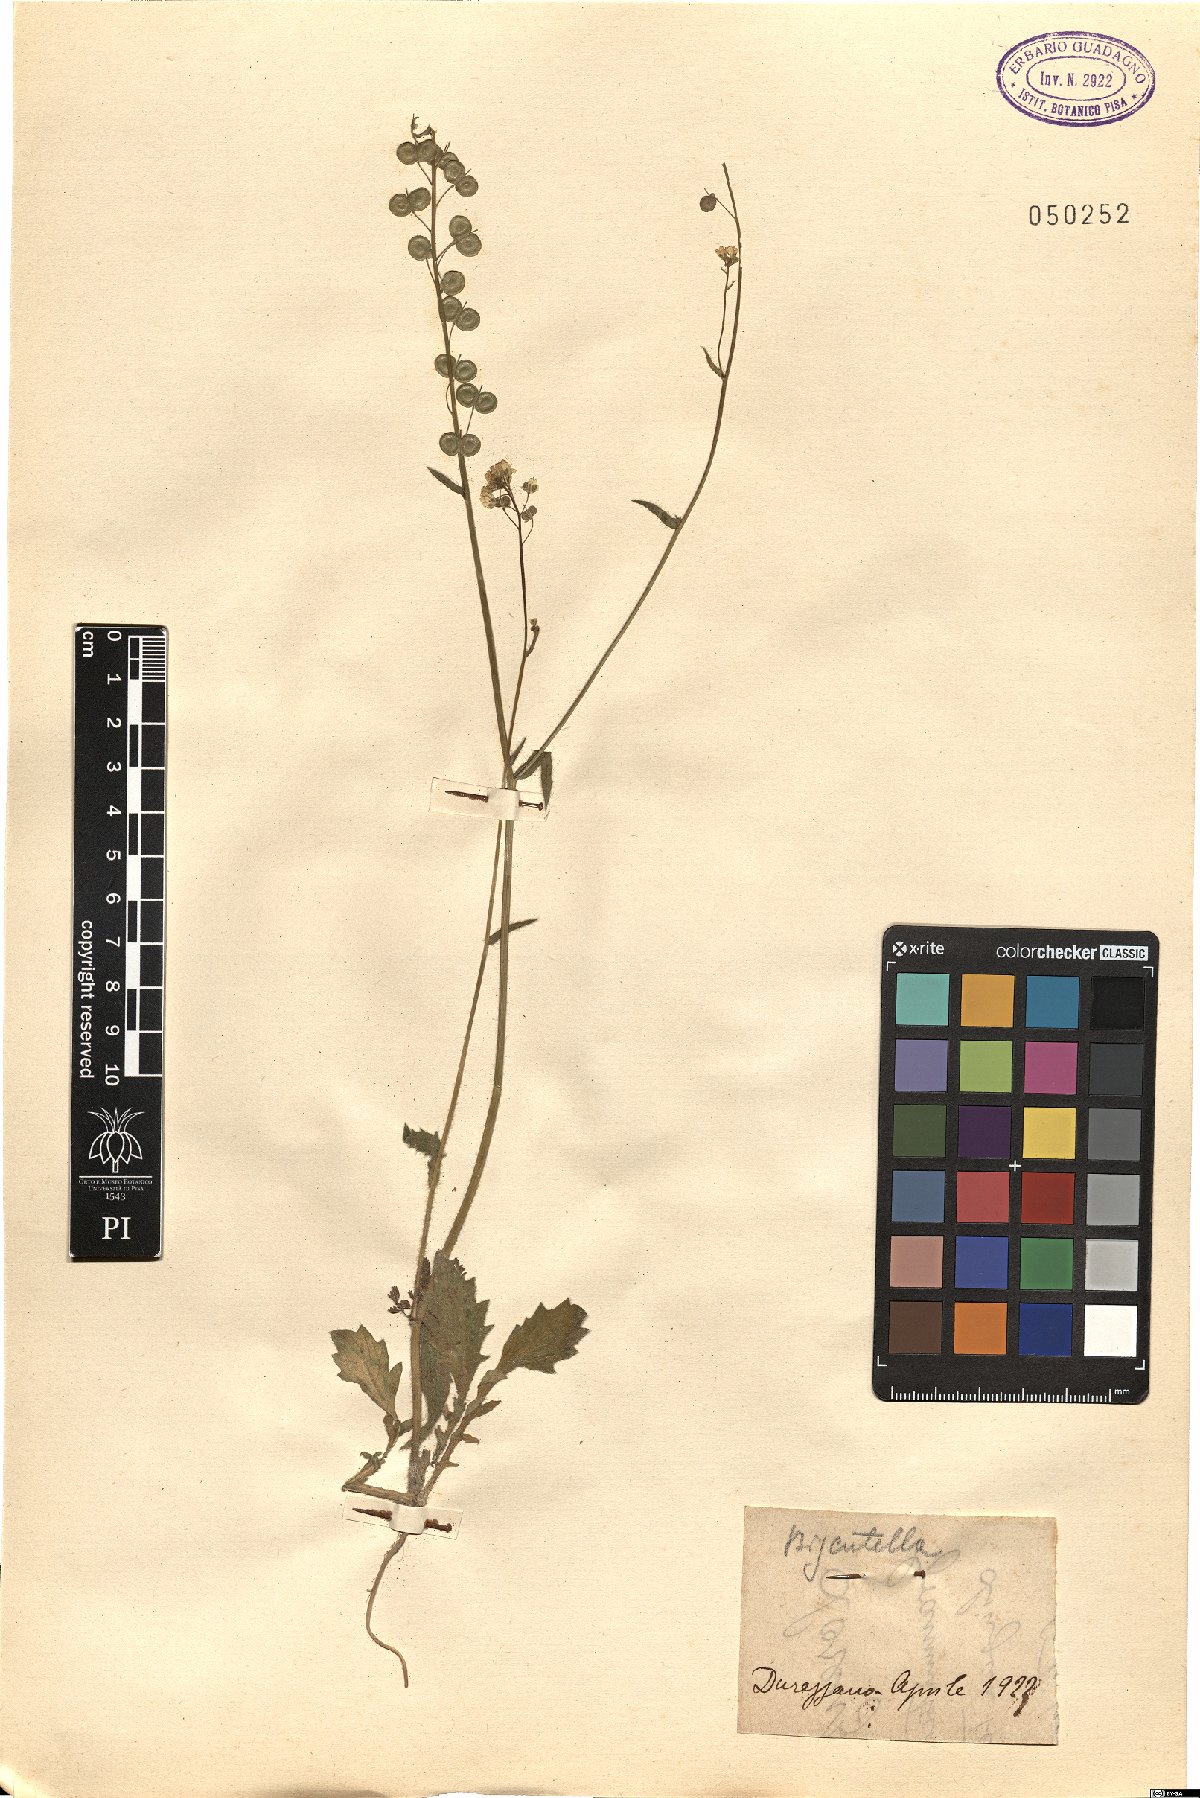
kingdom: Plantae
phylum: Tracheophyta
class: Magnoliopsida
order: Brassicales
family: Brassicaceae
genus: Biscutella
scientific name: Biscutella
